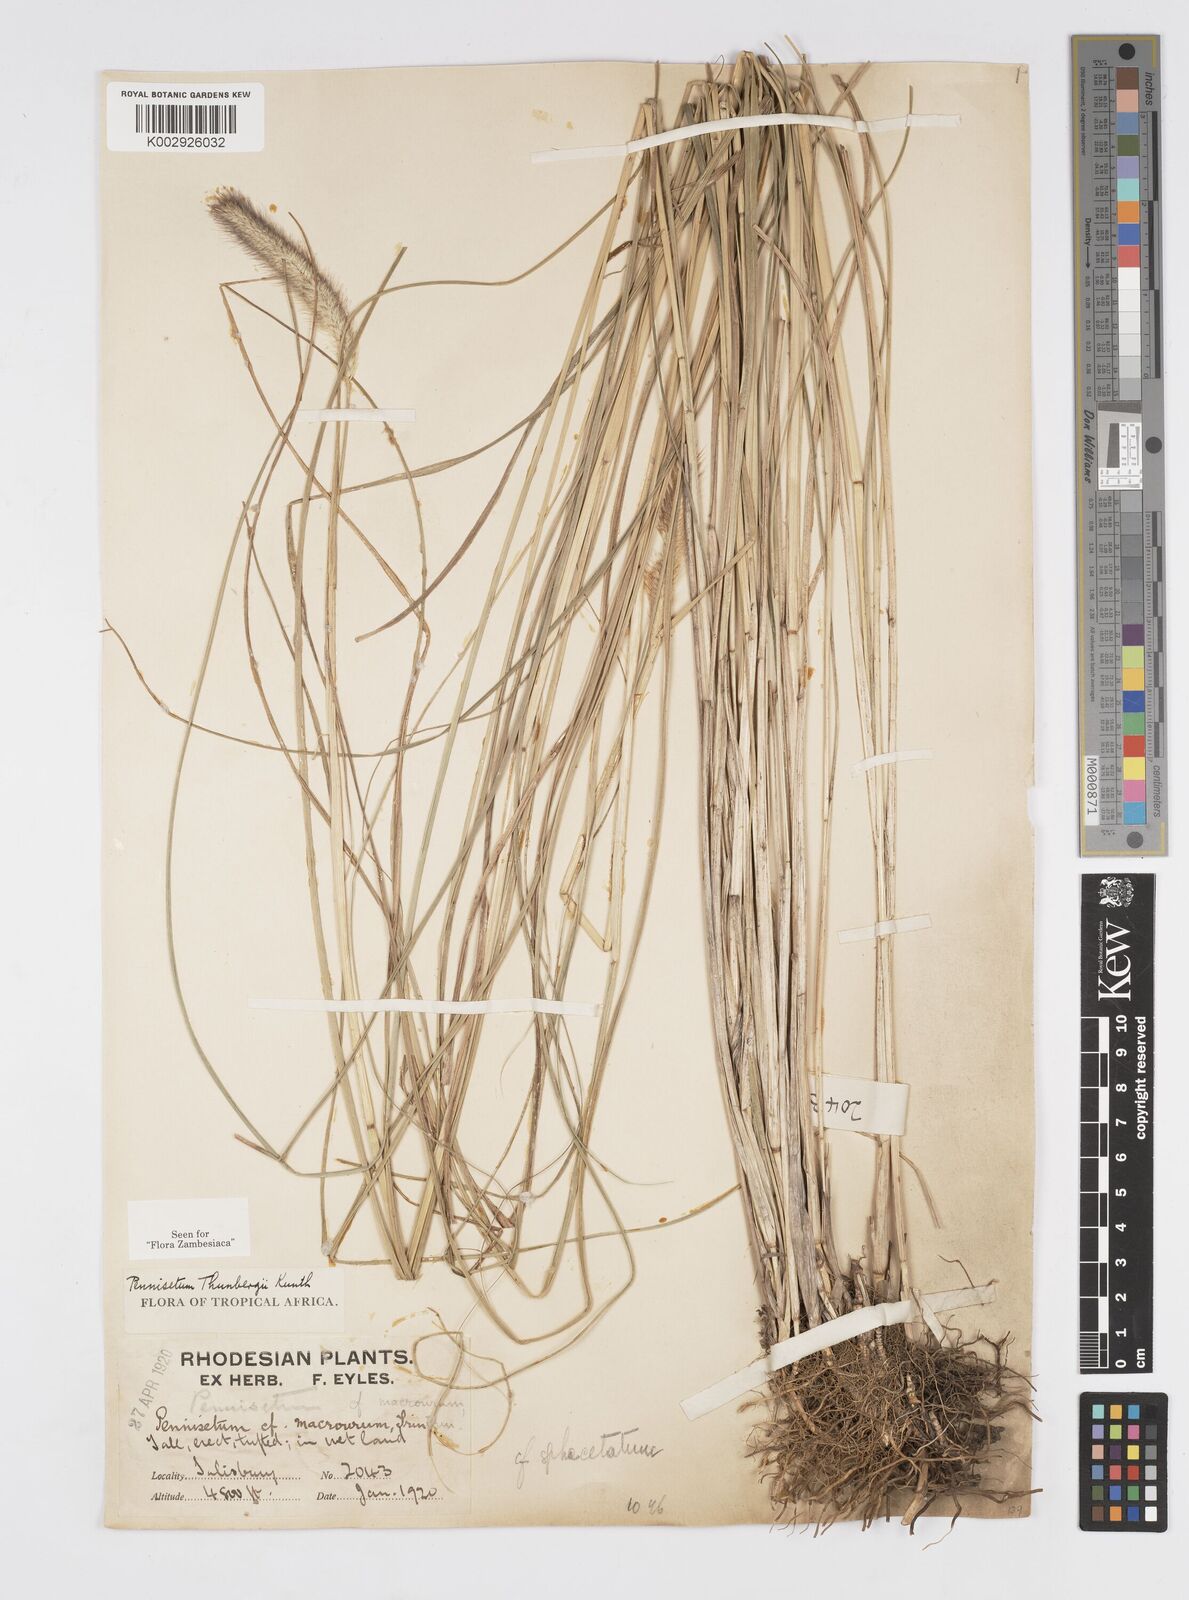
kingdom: Plantae
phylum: Tracheophyta
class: Liliopsida
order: Poales
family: Poaceae
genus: Cenchrus
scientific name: Cenchrus geniculatus
